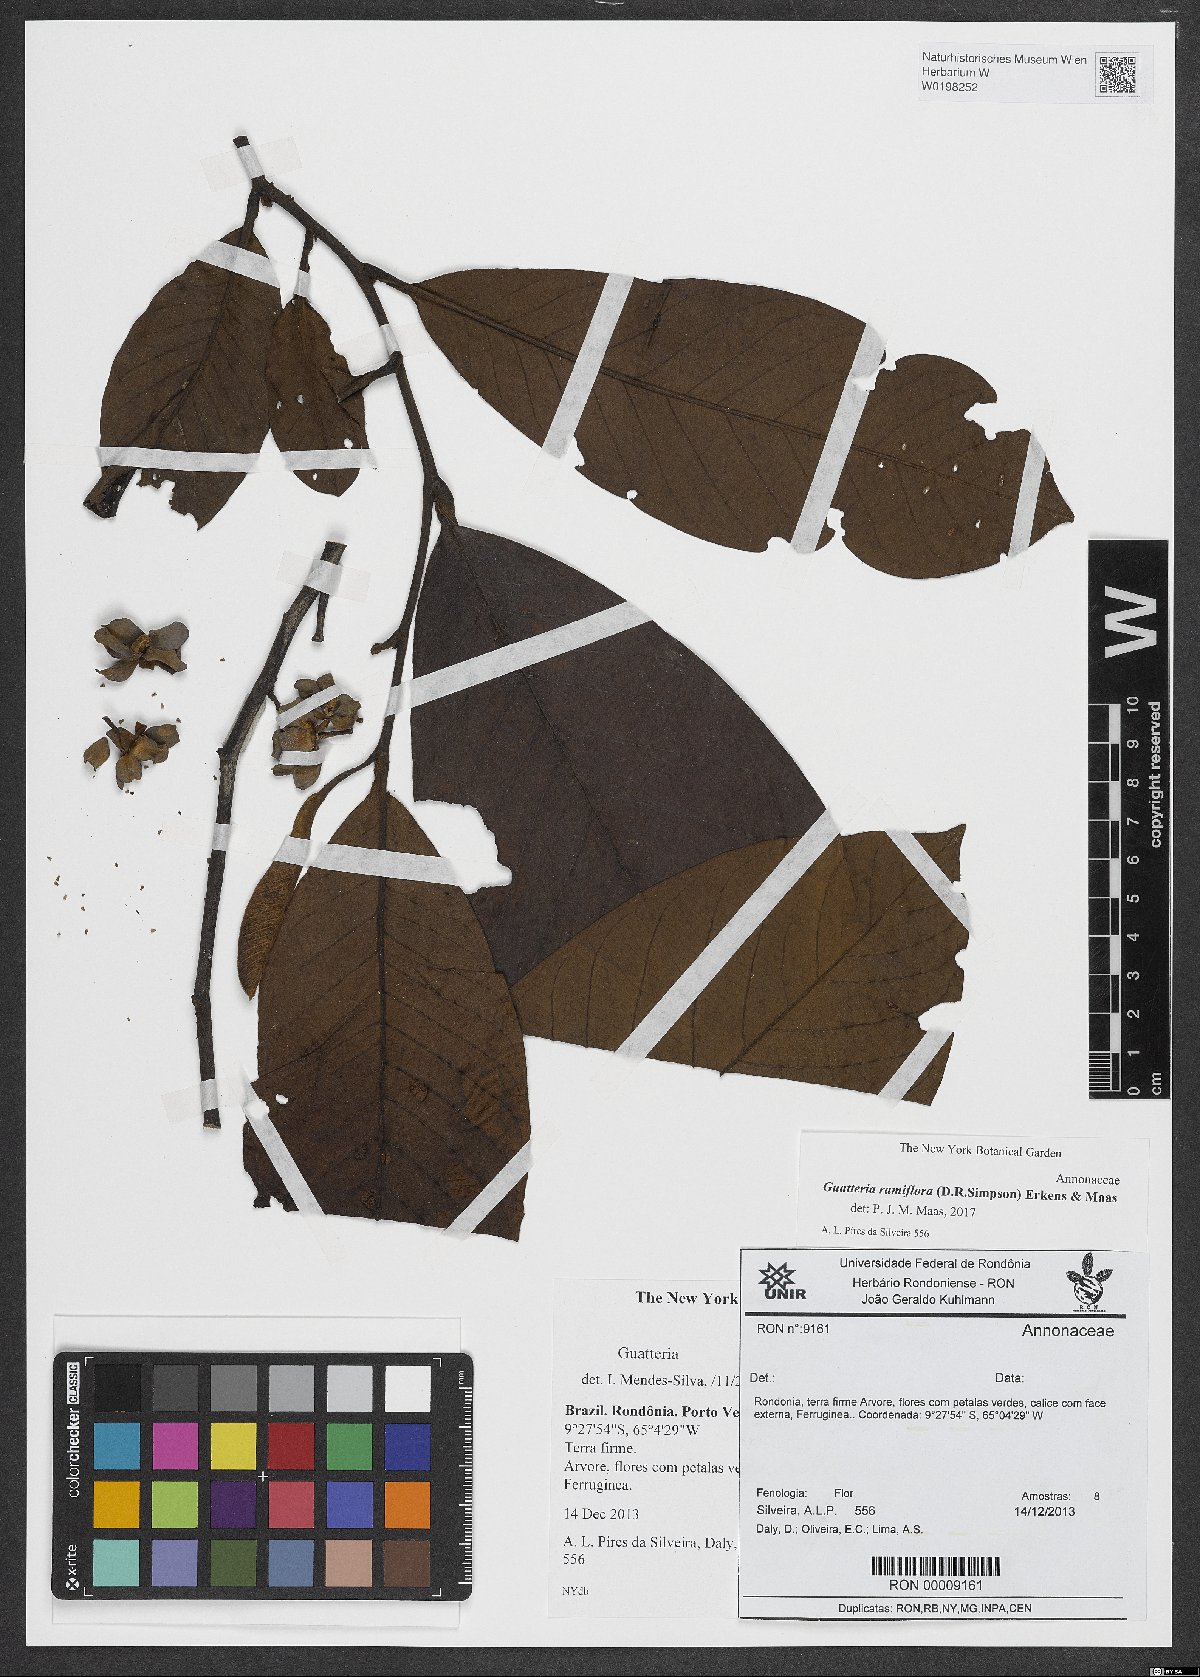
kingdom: Plantae
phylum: Tracheophyta
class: Magnoliopsida
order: Magnoliales
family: Annonaceae
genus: Guatteria
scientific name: Guatteria ramiflora
